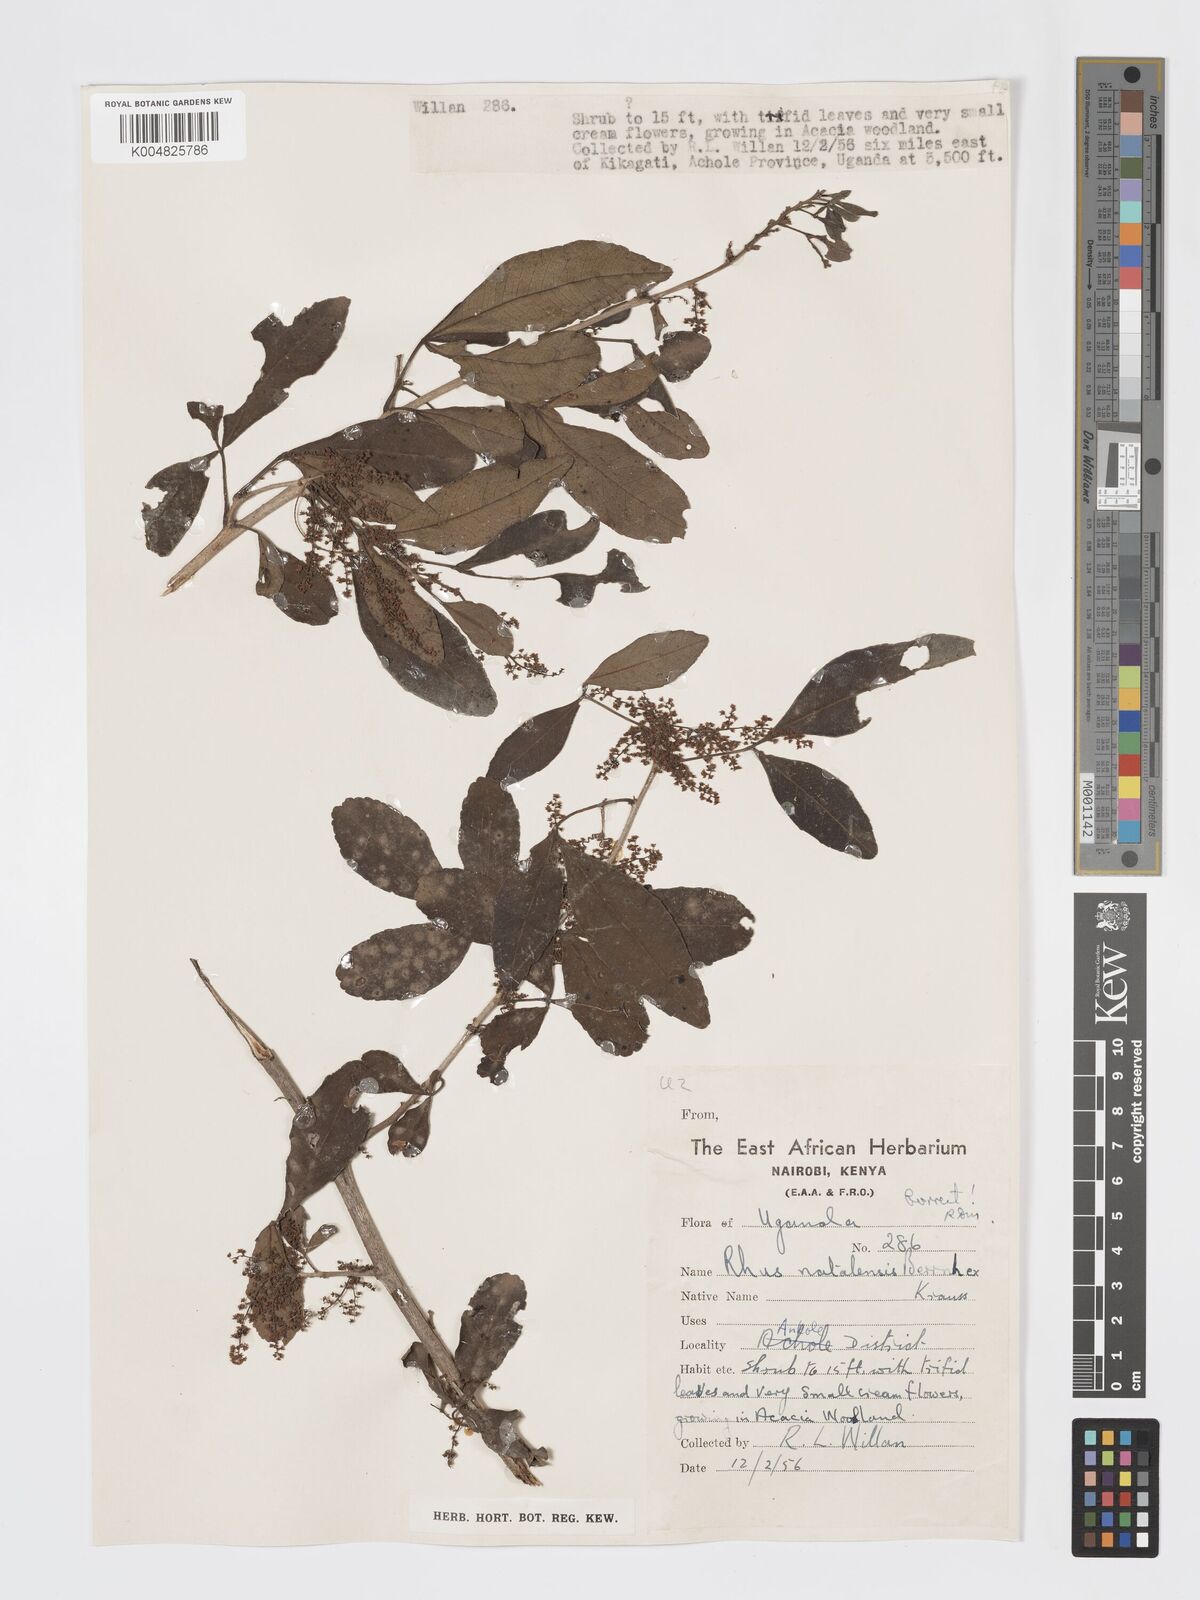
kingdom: Plantae
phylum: Tracheophyta
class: Magnoliopsida
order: Sapindales
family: Anacardiaceae
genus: Searsia
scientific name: Searsia natalensis
